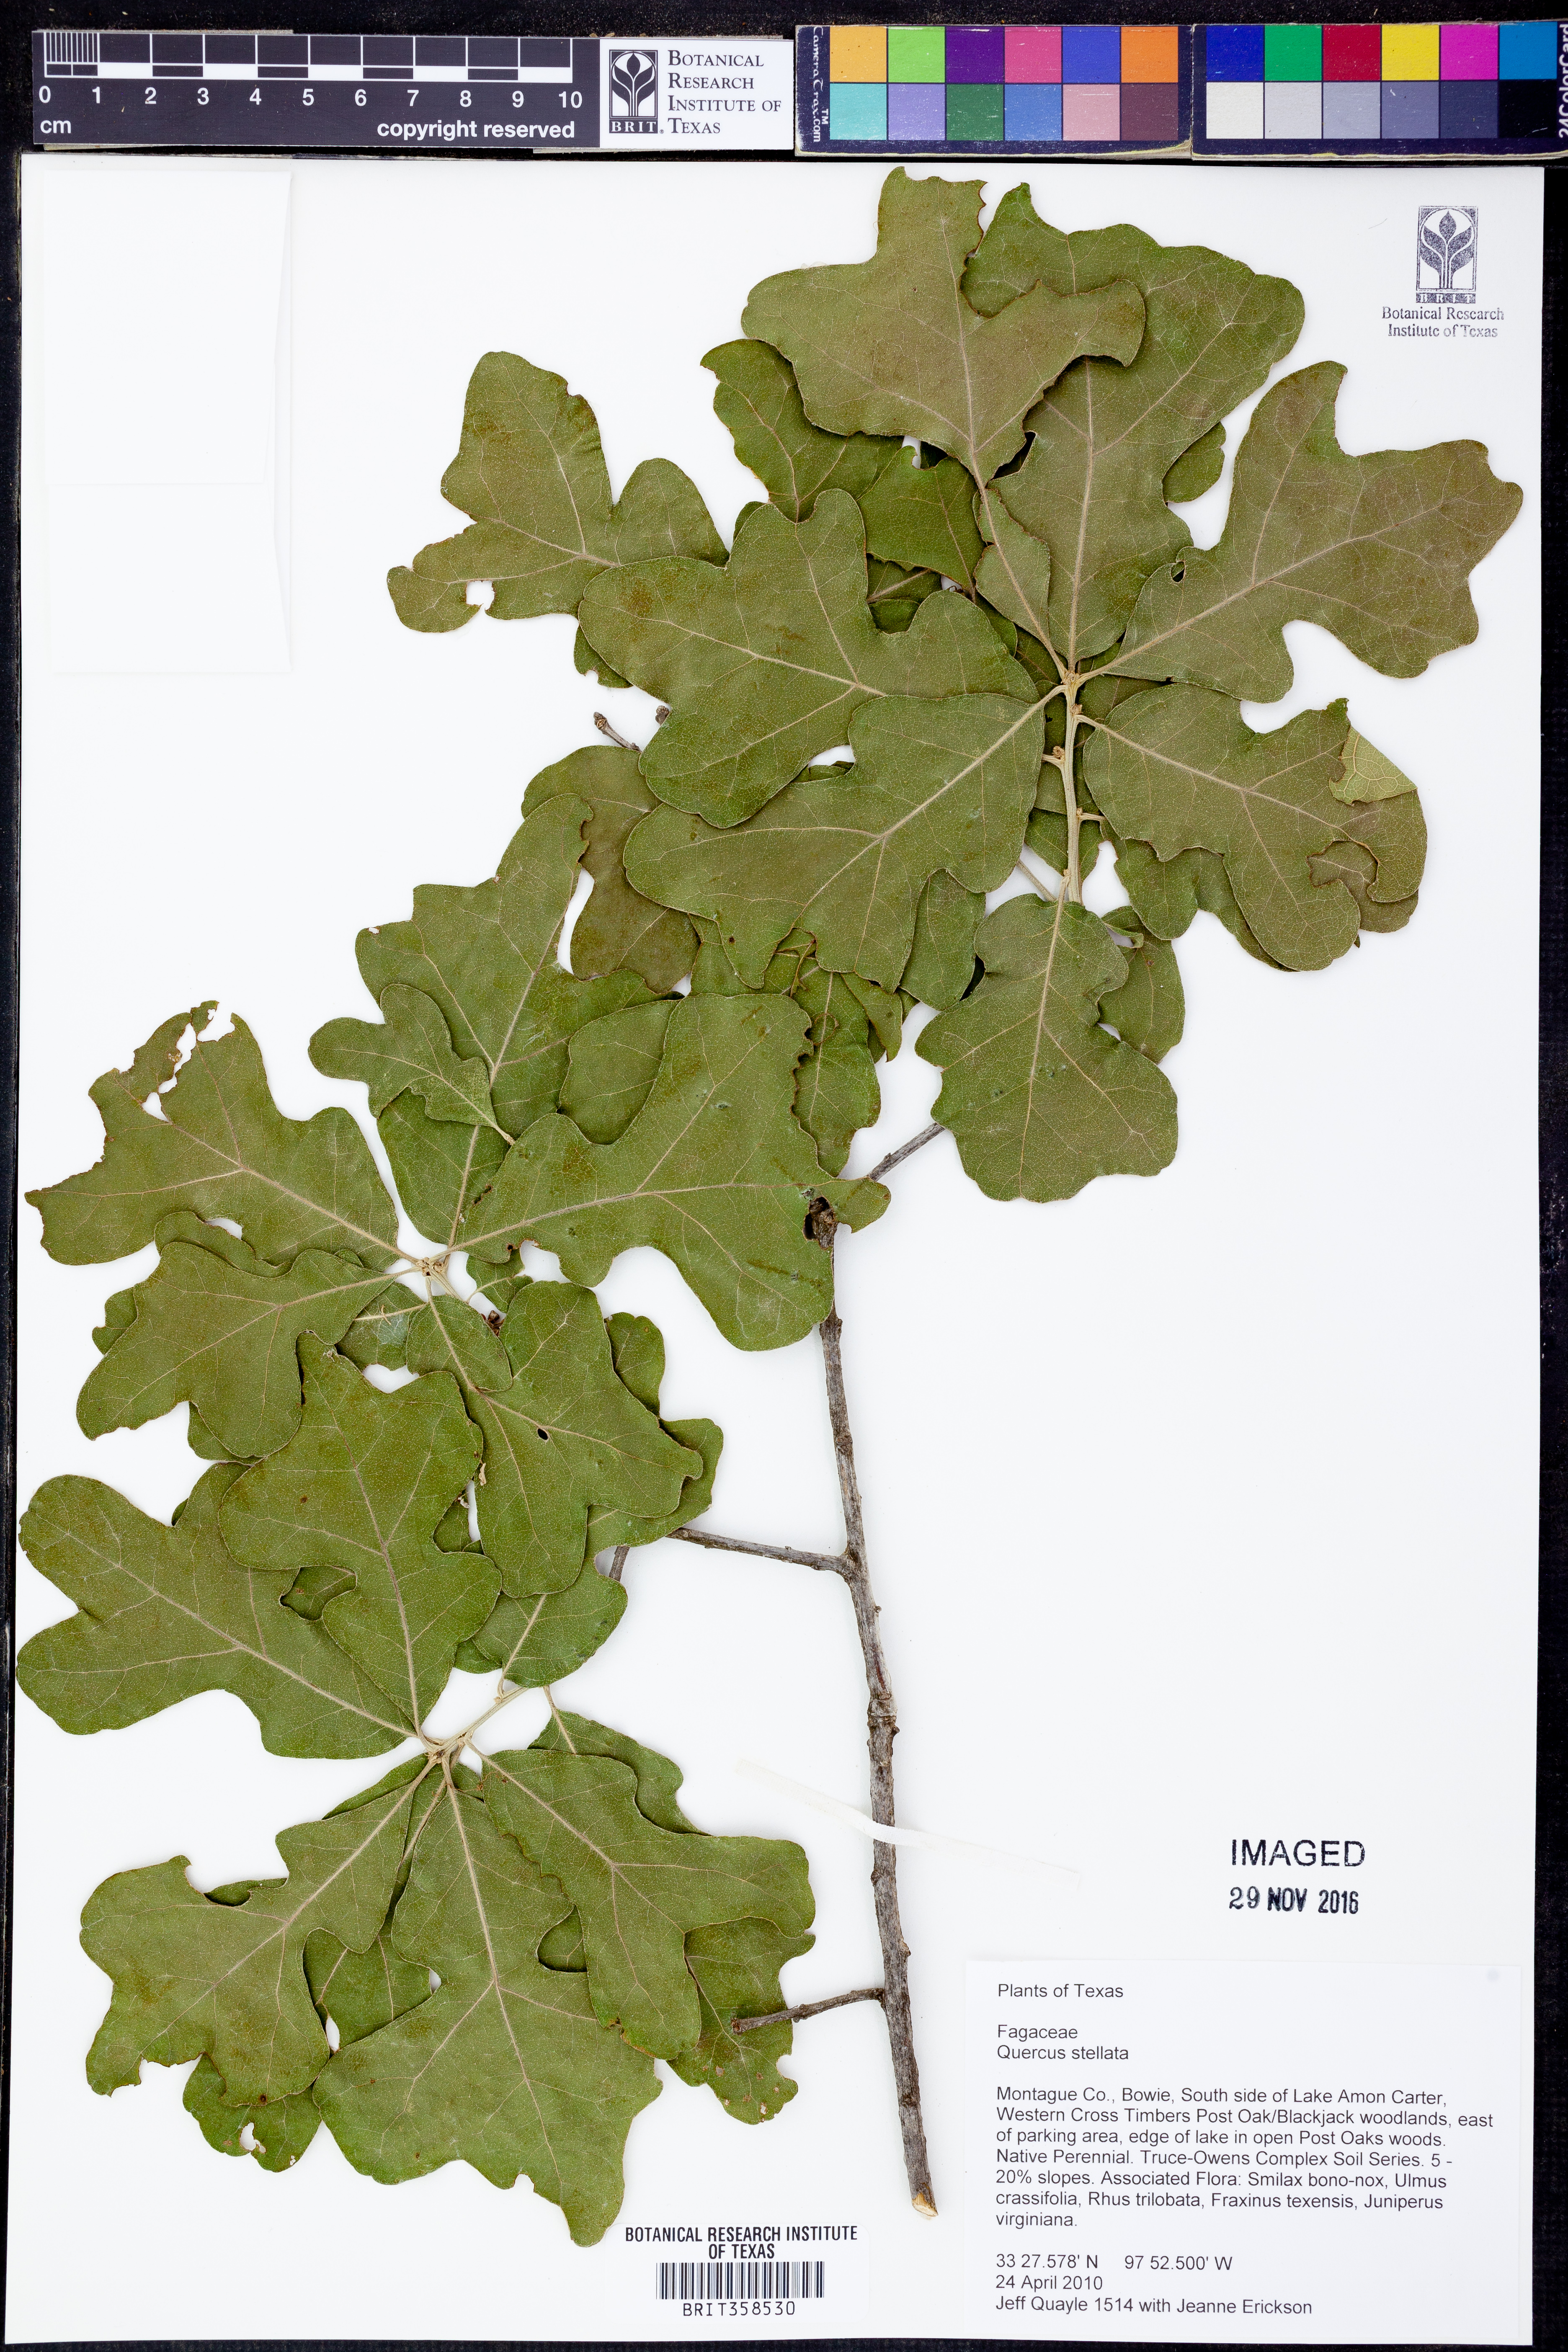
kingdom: Plantae
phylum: Tracheophyta
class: Magnoliopsida
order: Fagales
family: Fagaceae
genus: Quercus
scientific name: Quercus stellata
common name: Post oak
